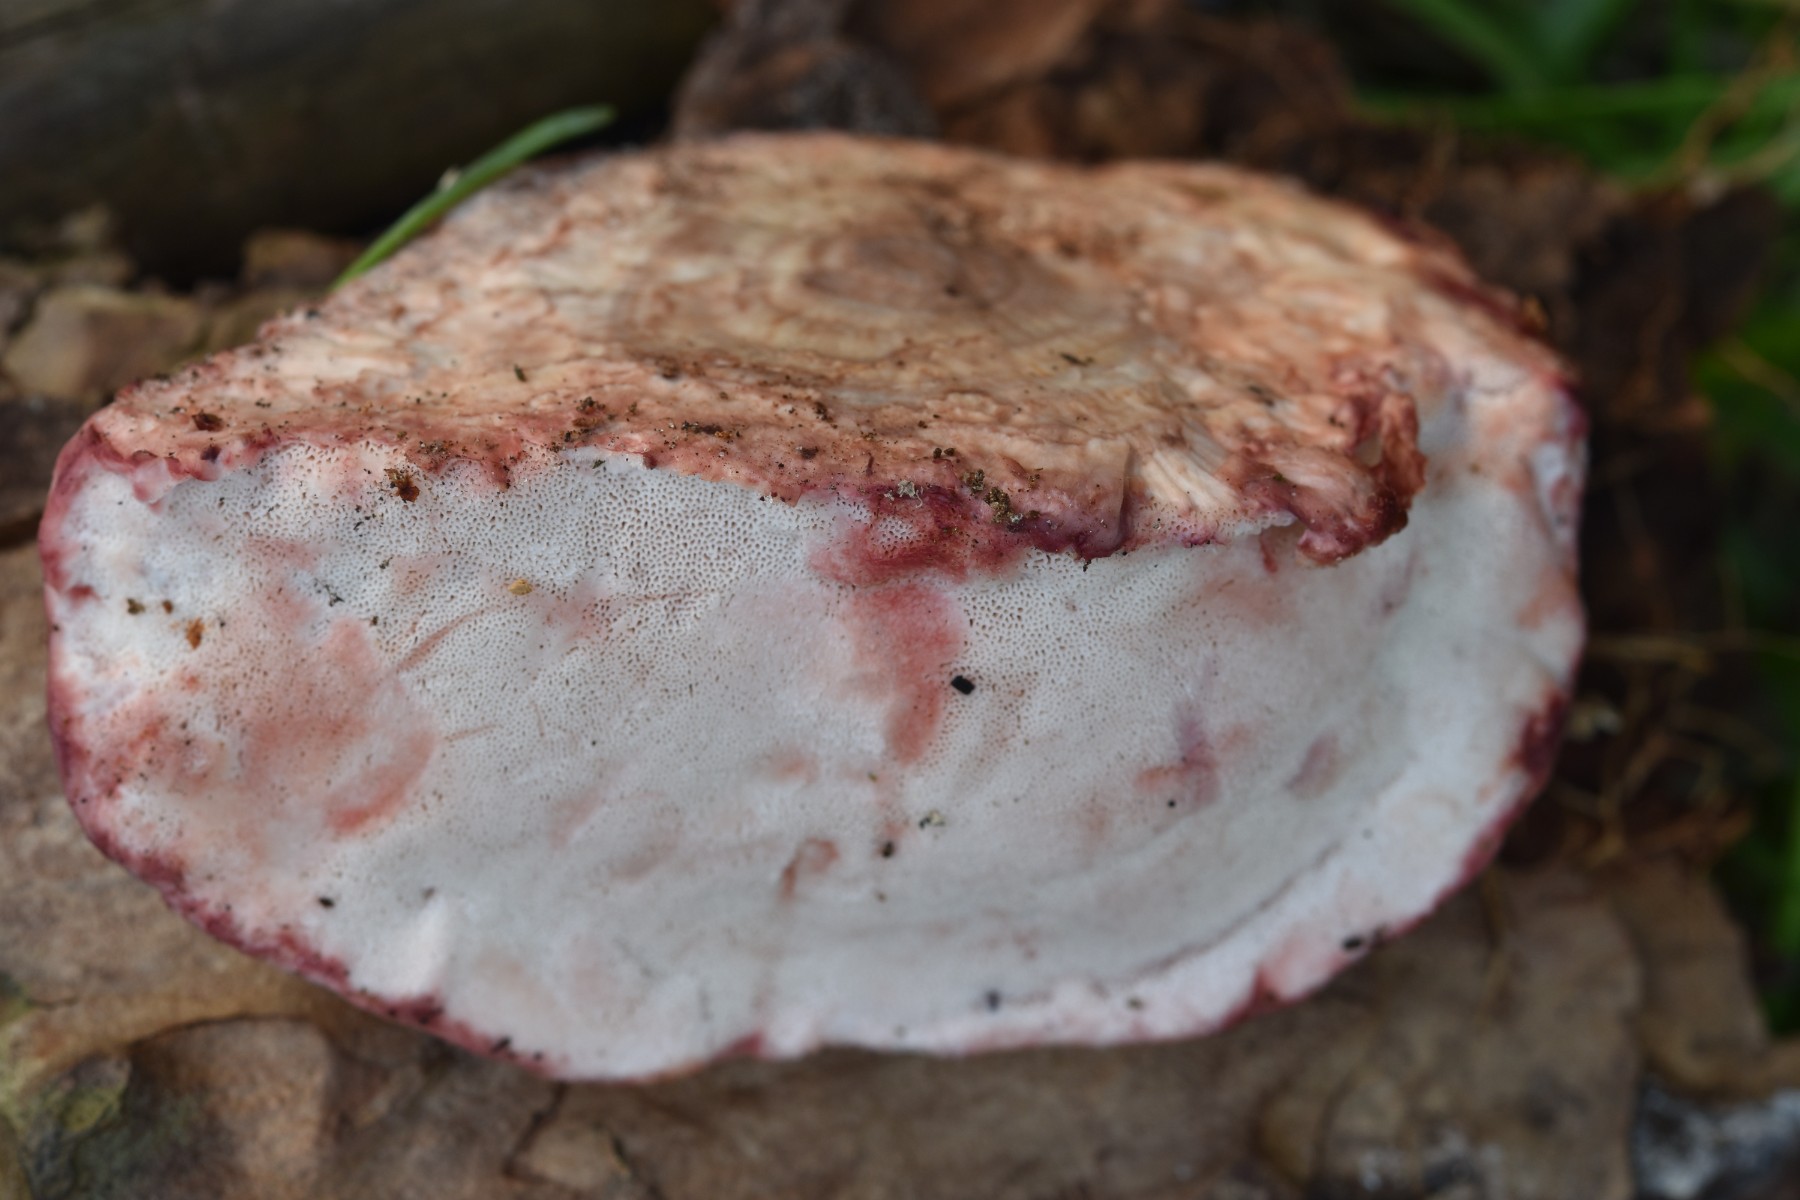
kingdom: Fungi
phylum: Basidiomycota
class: Agaricomycetes
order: Polyporales
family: Irpicaceae
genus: Leptoporus
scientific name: Leptoporus mollis
